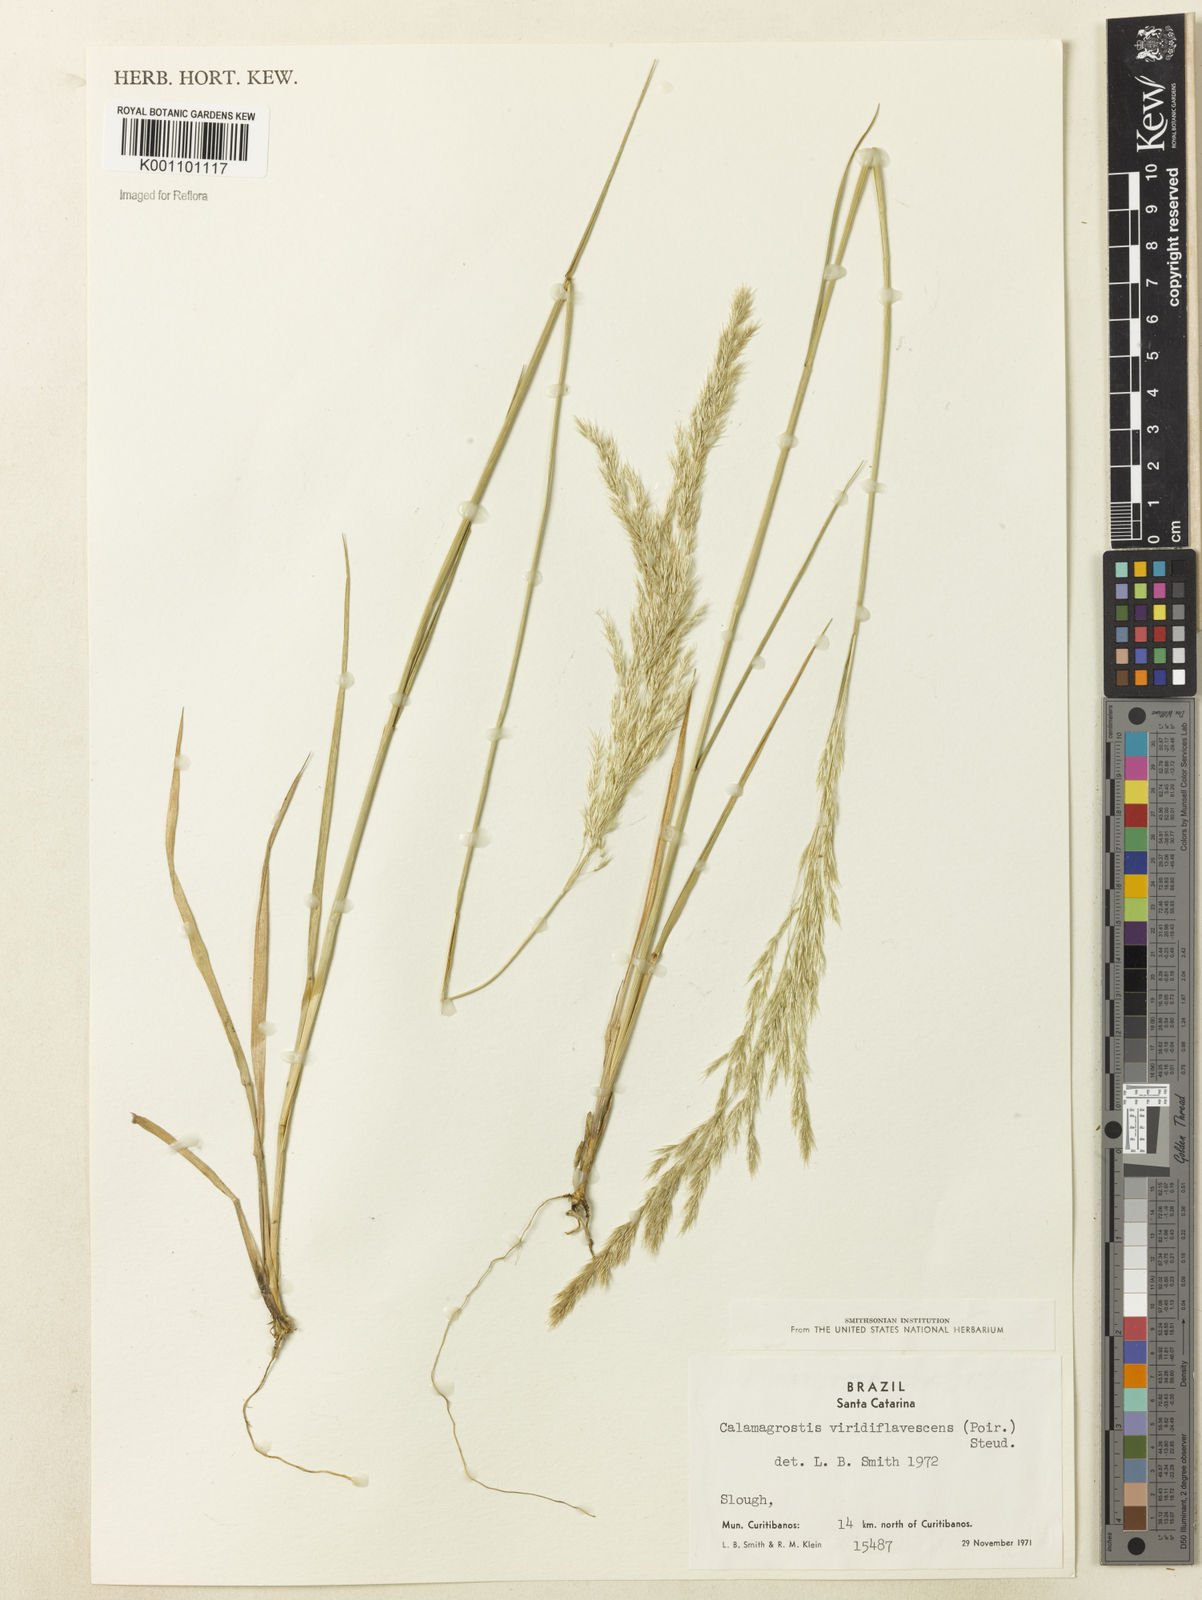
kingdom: Plantae
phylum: Tracheophyta
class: Liliopsida
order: Poales
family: Poaceae
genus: Cinnagrostis
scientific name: Cinnagrostis viridiflavescens
